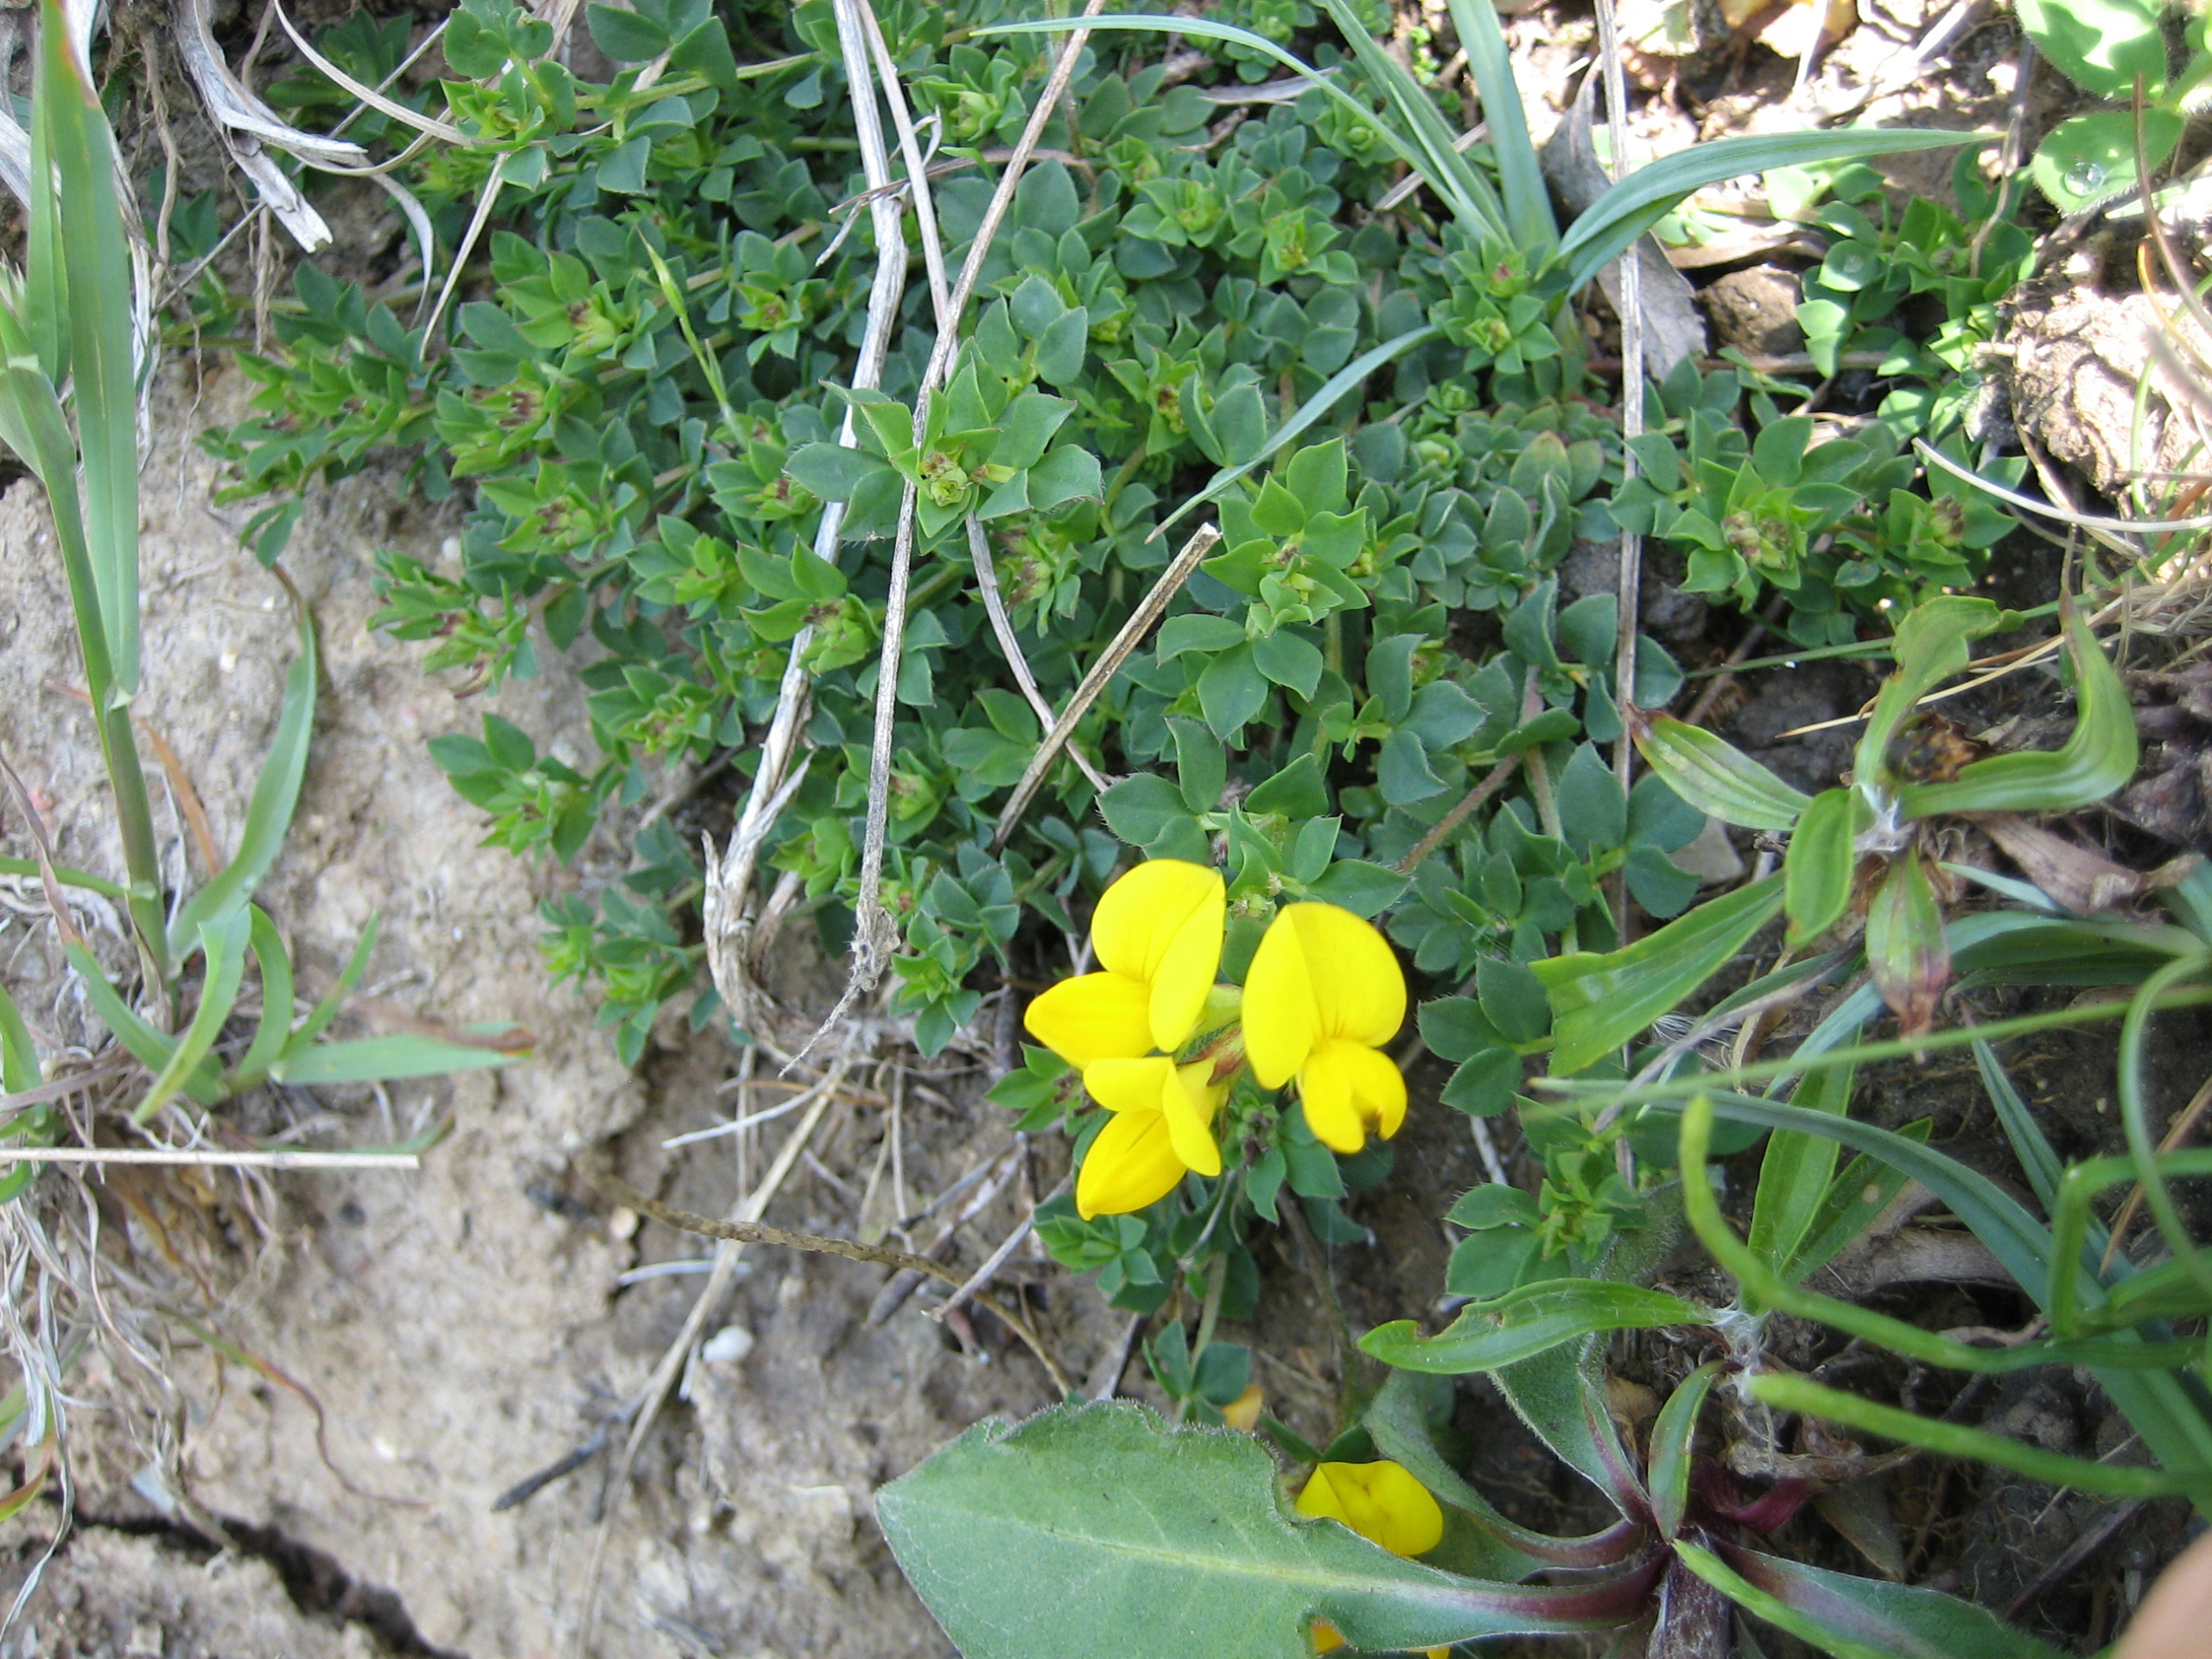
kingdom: Plantae
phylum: Tracheophyta
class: Magnoliopsida
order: Fabales
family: Fabaceae
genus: Lotus
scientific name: Lotus corniculatus
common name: Almindelig kællingetand
